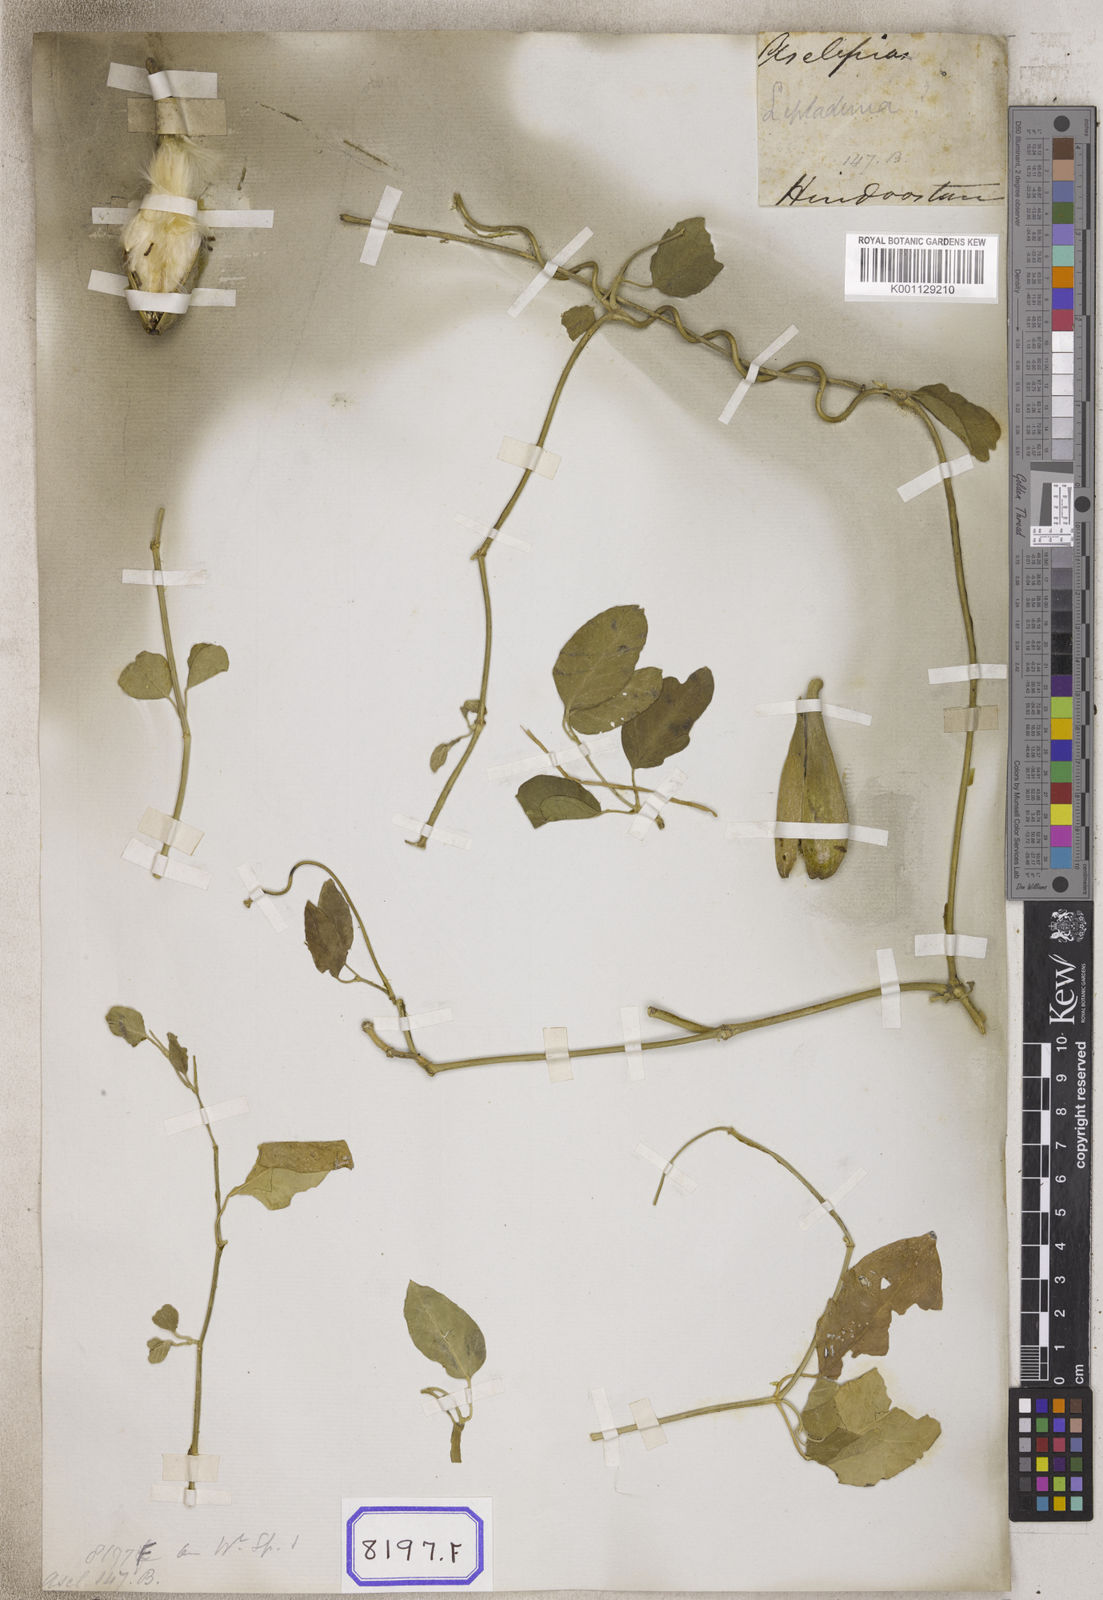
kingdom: Plantae
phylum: Tracheophyta
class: Magnoliopsida
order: Gentianales
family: Apocynaceae
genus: Leptadenia
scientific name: Leptadenia reticulata
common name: Leptadenia
